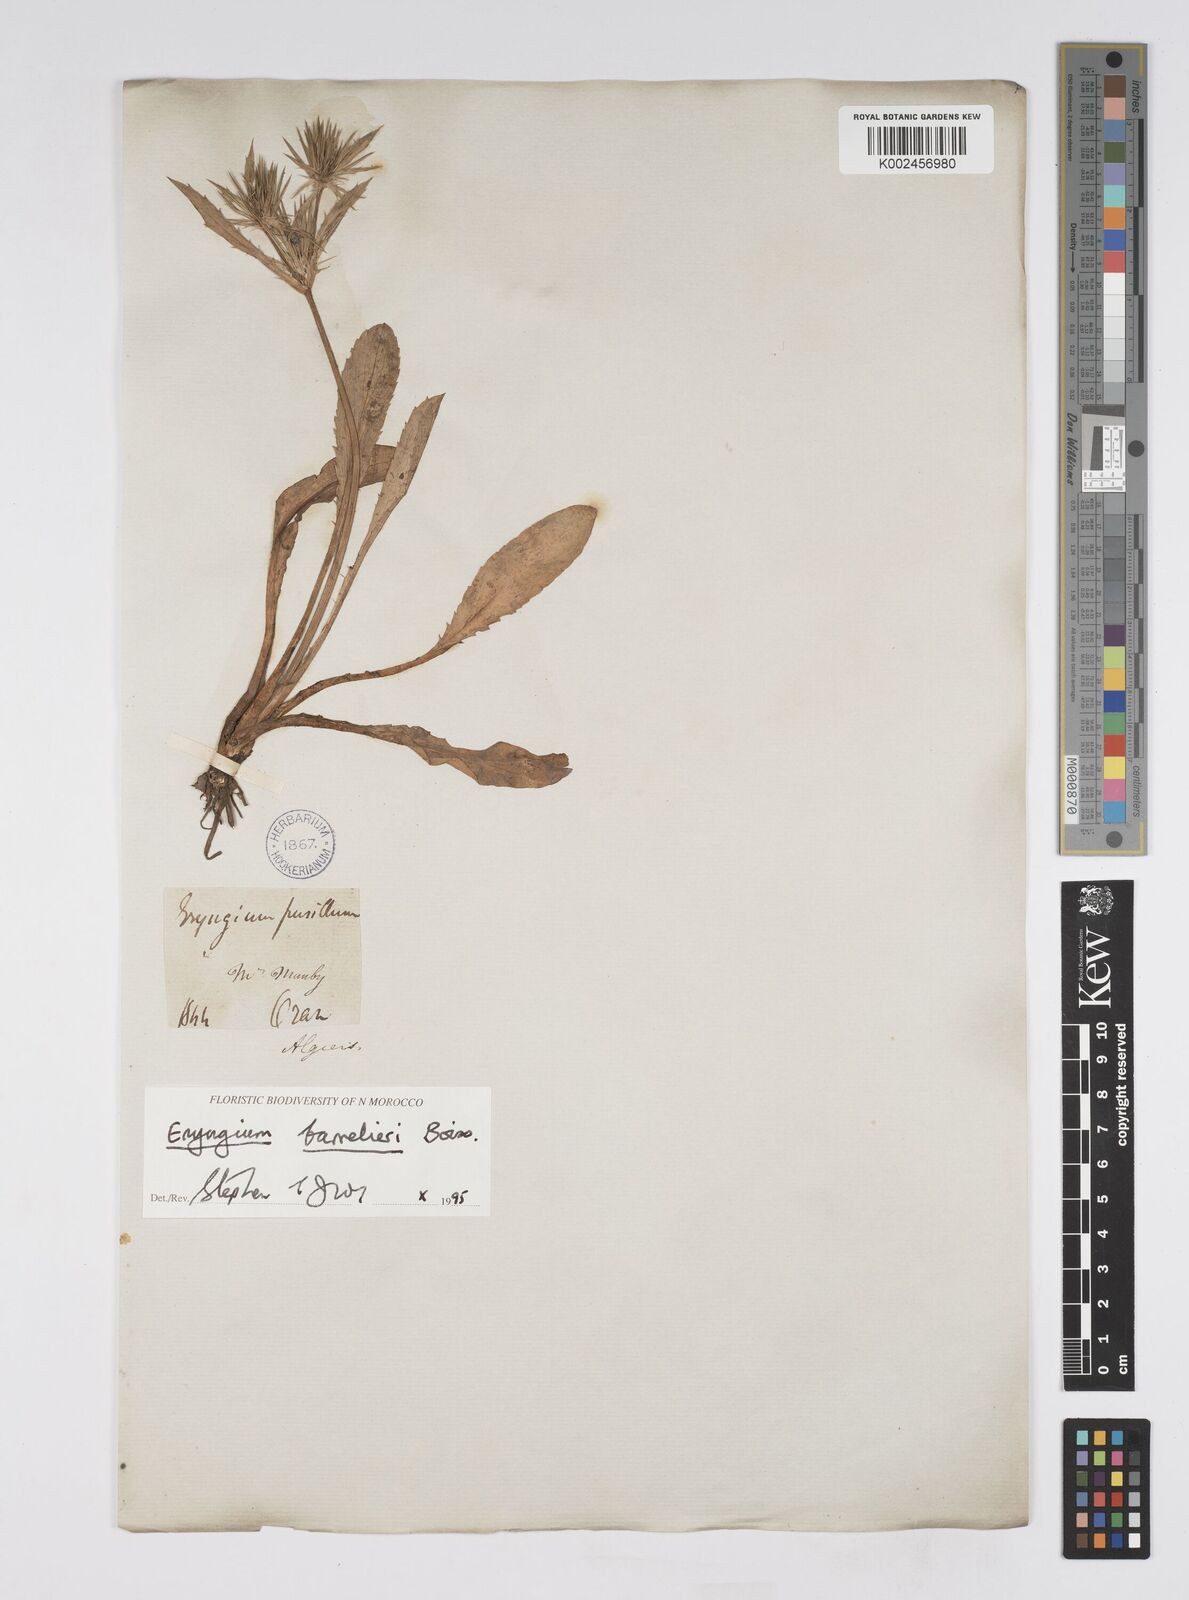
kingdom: Plantae
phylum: Tracheophyta
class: Magnoliopsida
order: Apiales
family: Apiaceae
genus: Eryngium
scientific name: Eryngium pusillum
